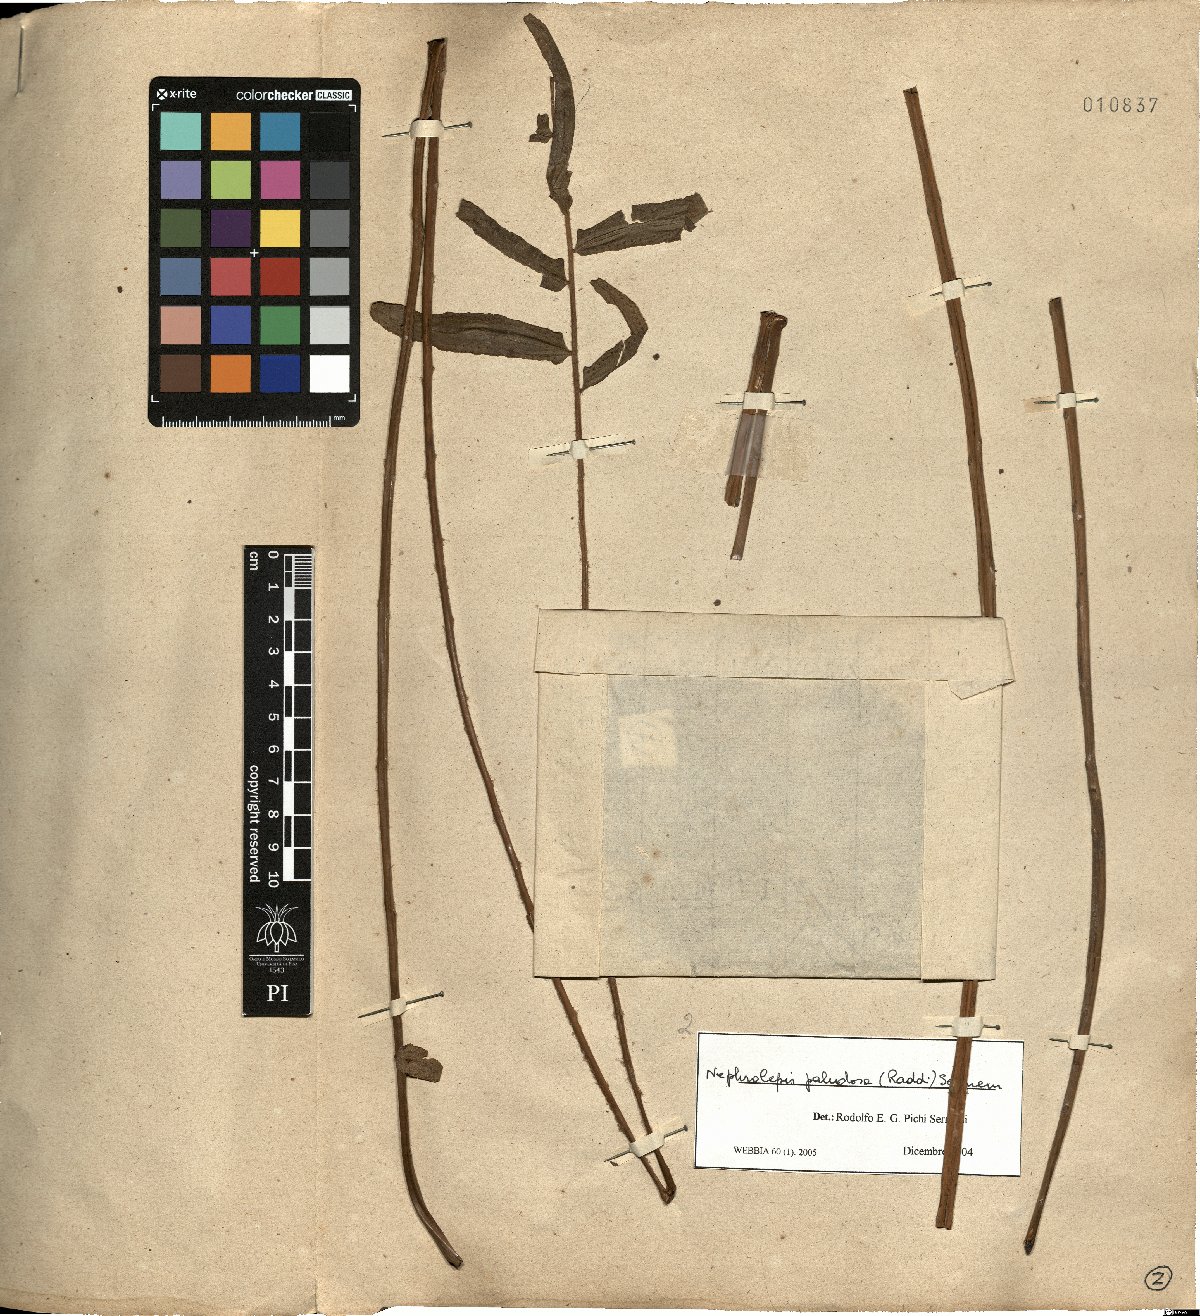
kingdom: Plantae
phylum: Tracheophyta
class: Polypodiopsida
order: Polypodiales
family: Nephrolepidaceae
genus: Nephrolepis
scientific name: Nephrolepis biserrata
